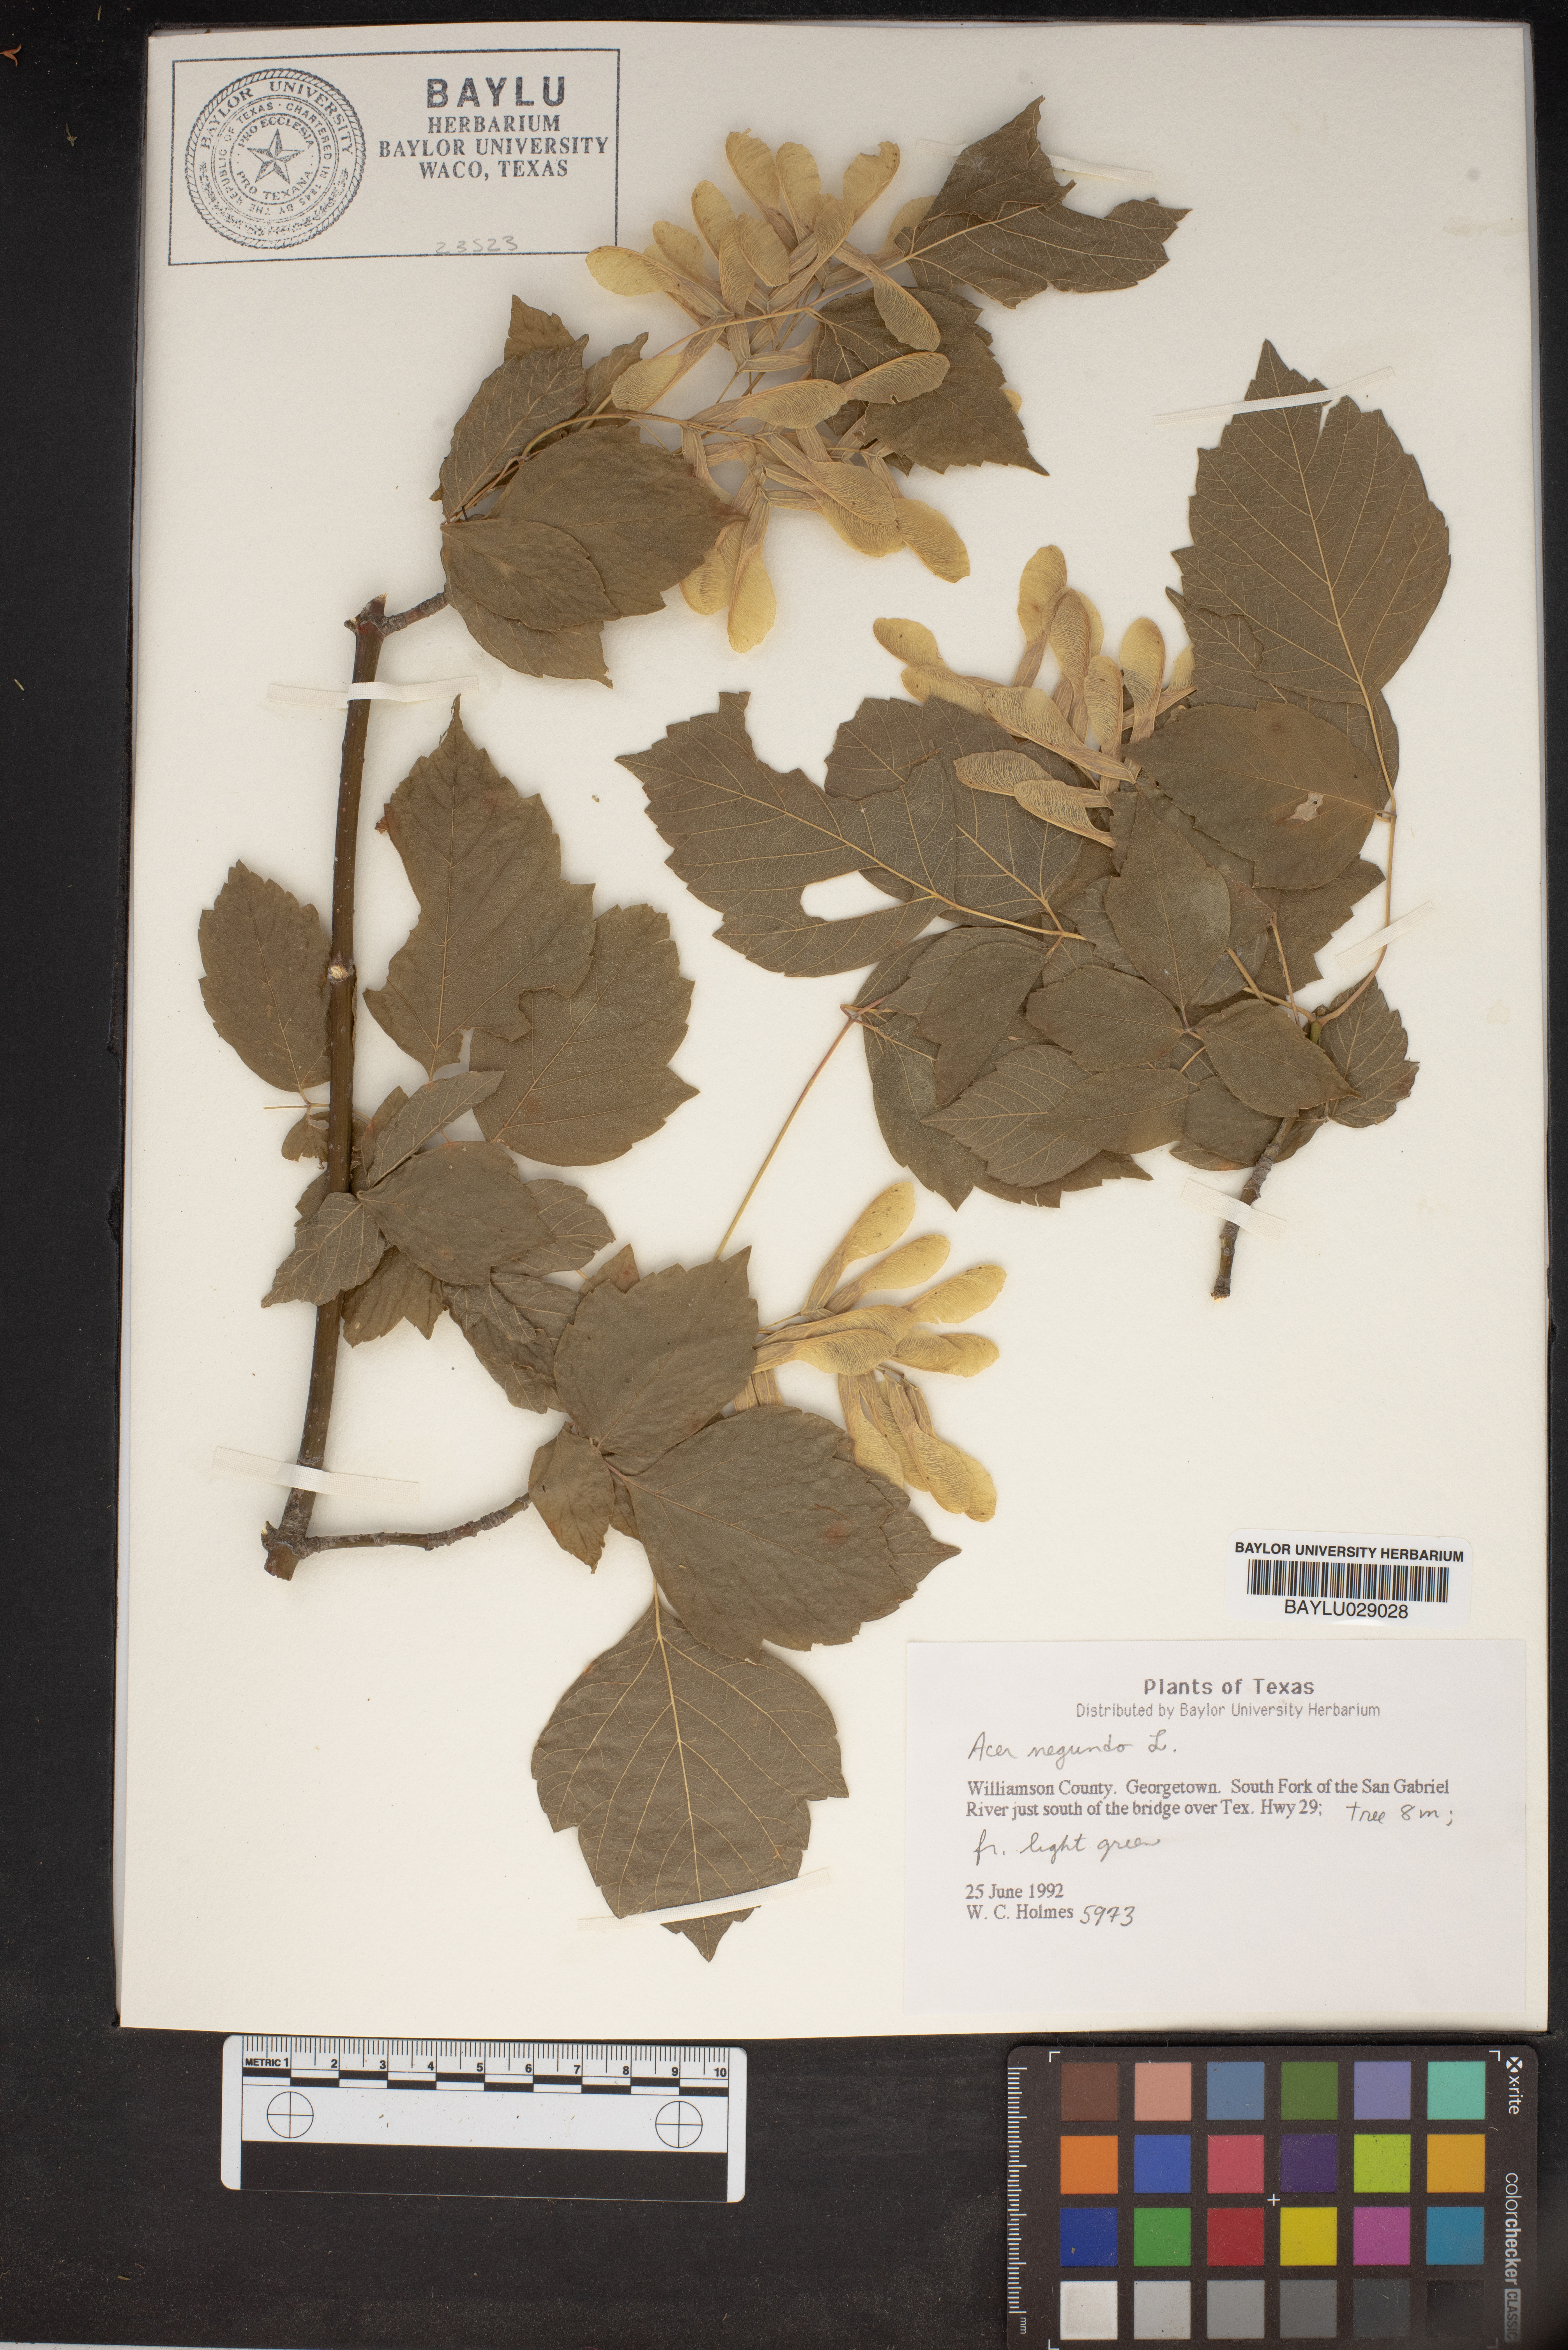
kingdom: Plantae
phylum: Tracheophyta
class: Magnoliopsida
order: Sapindales
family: Sapindaceae
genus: Acer
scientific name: Acer negundo
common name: Ashleaf maple
